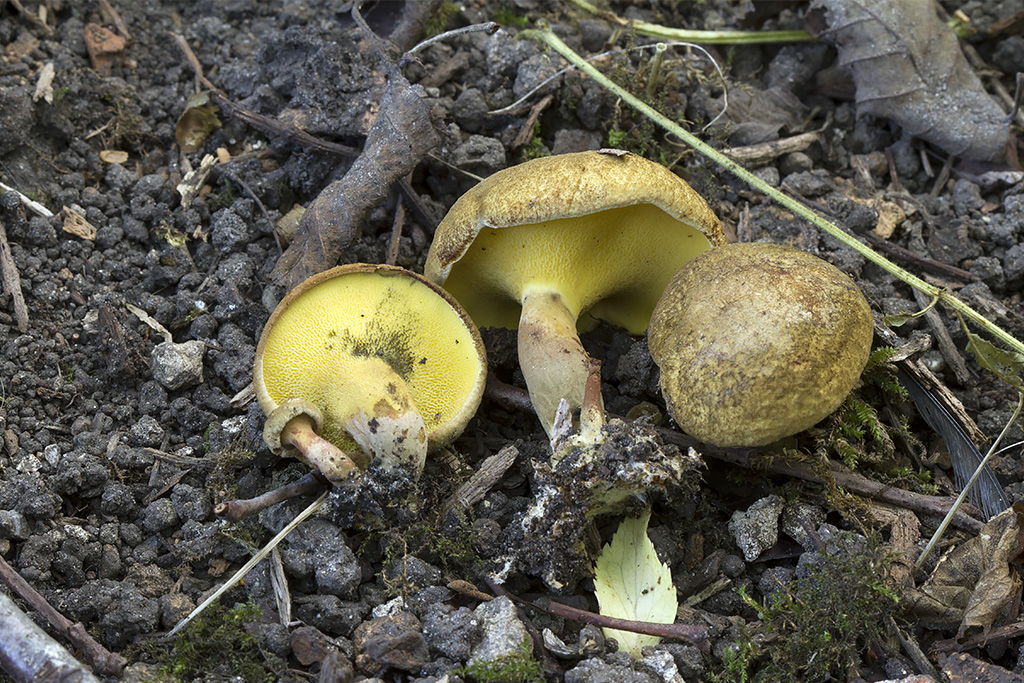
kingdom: Fungi
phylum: Basidiomycota
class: Agaricomycetes
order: Boletales
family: Paxillaceae
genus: Gyrodon
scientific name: Gyrodon lividus
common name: ellerørhat
